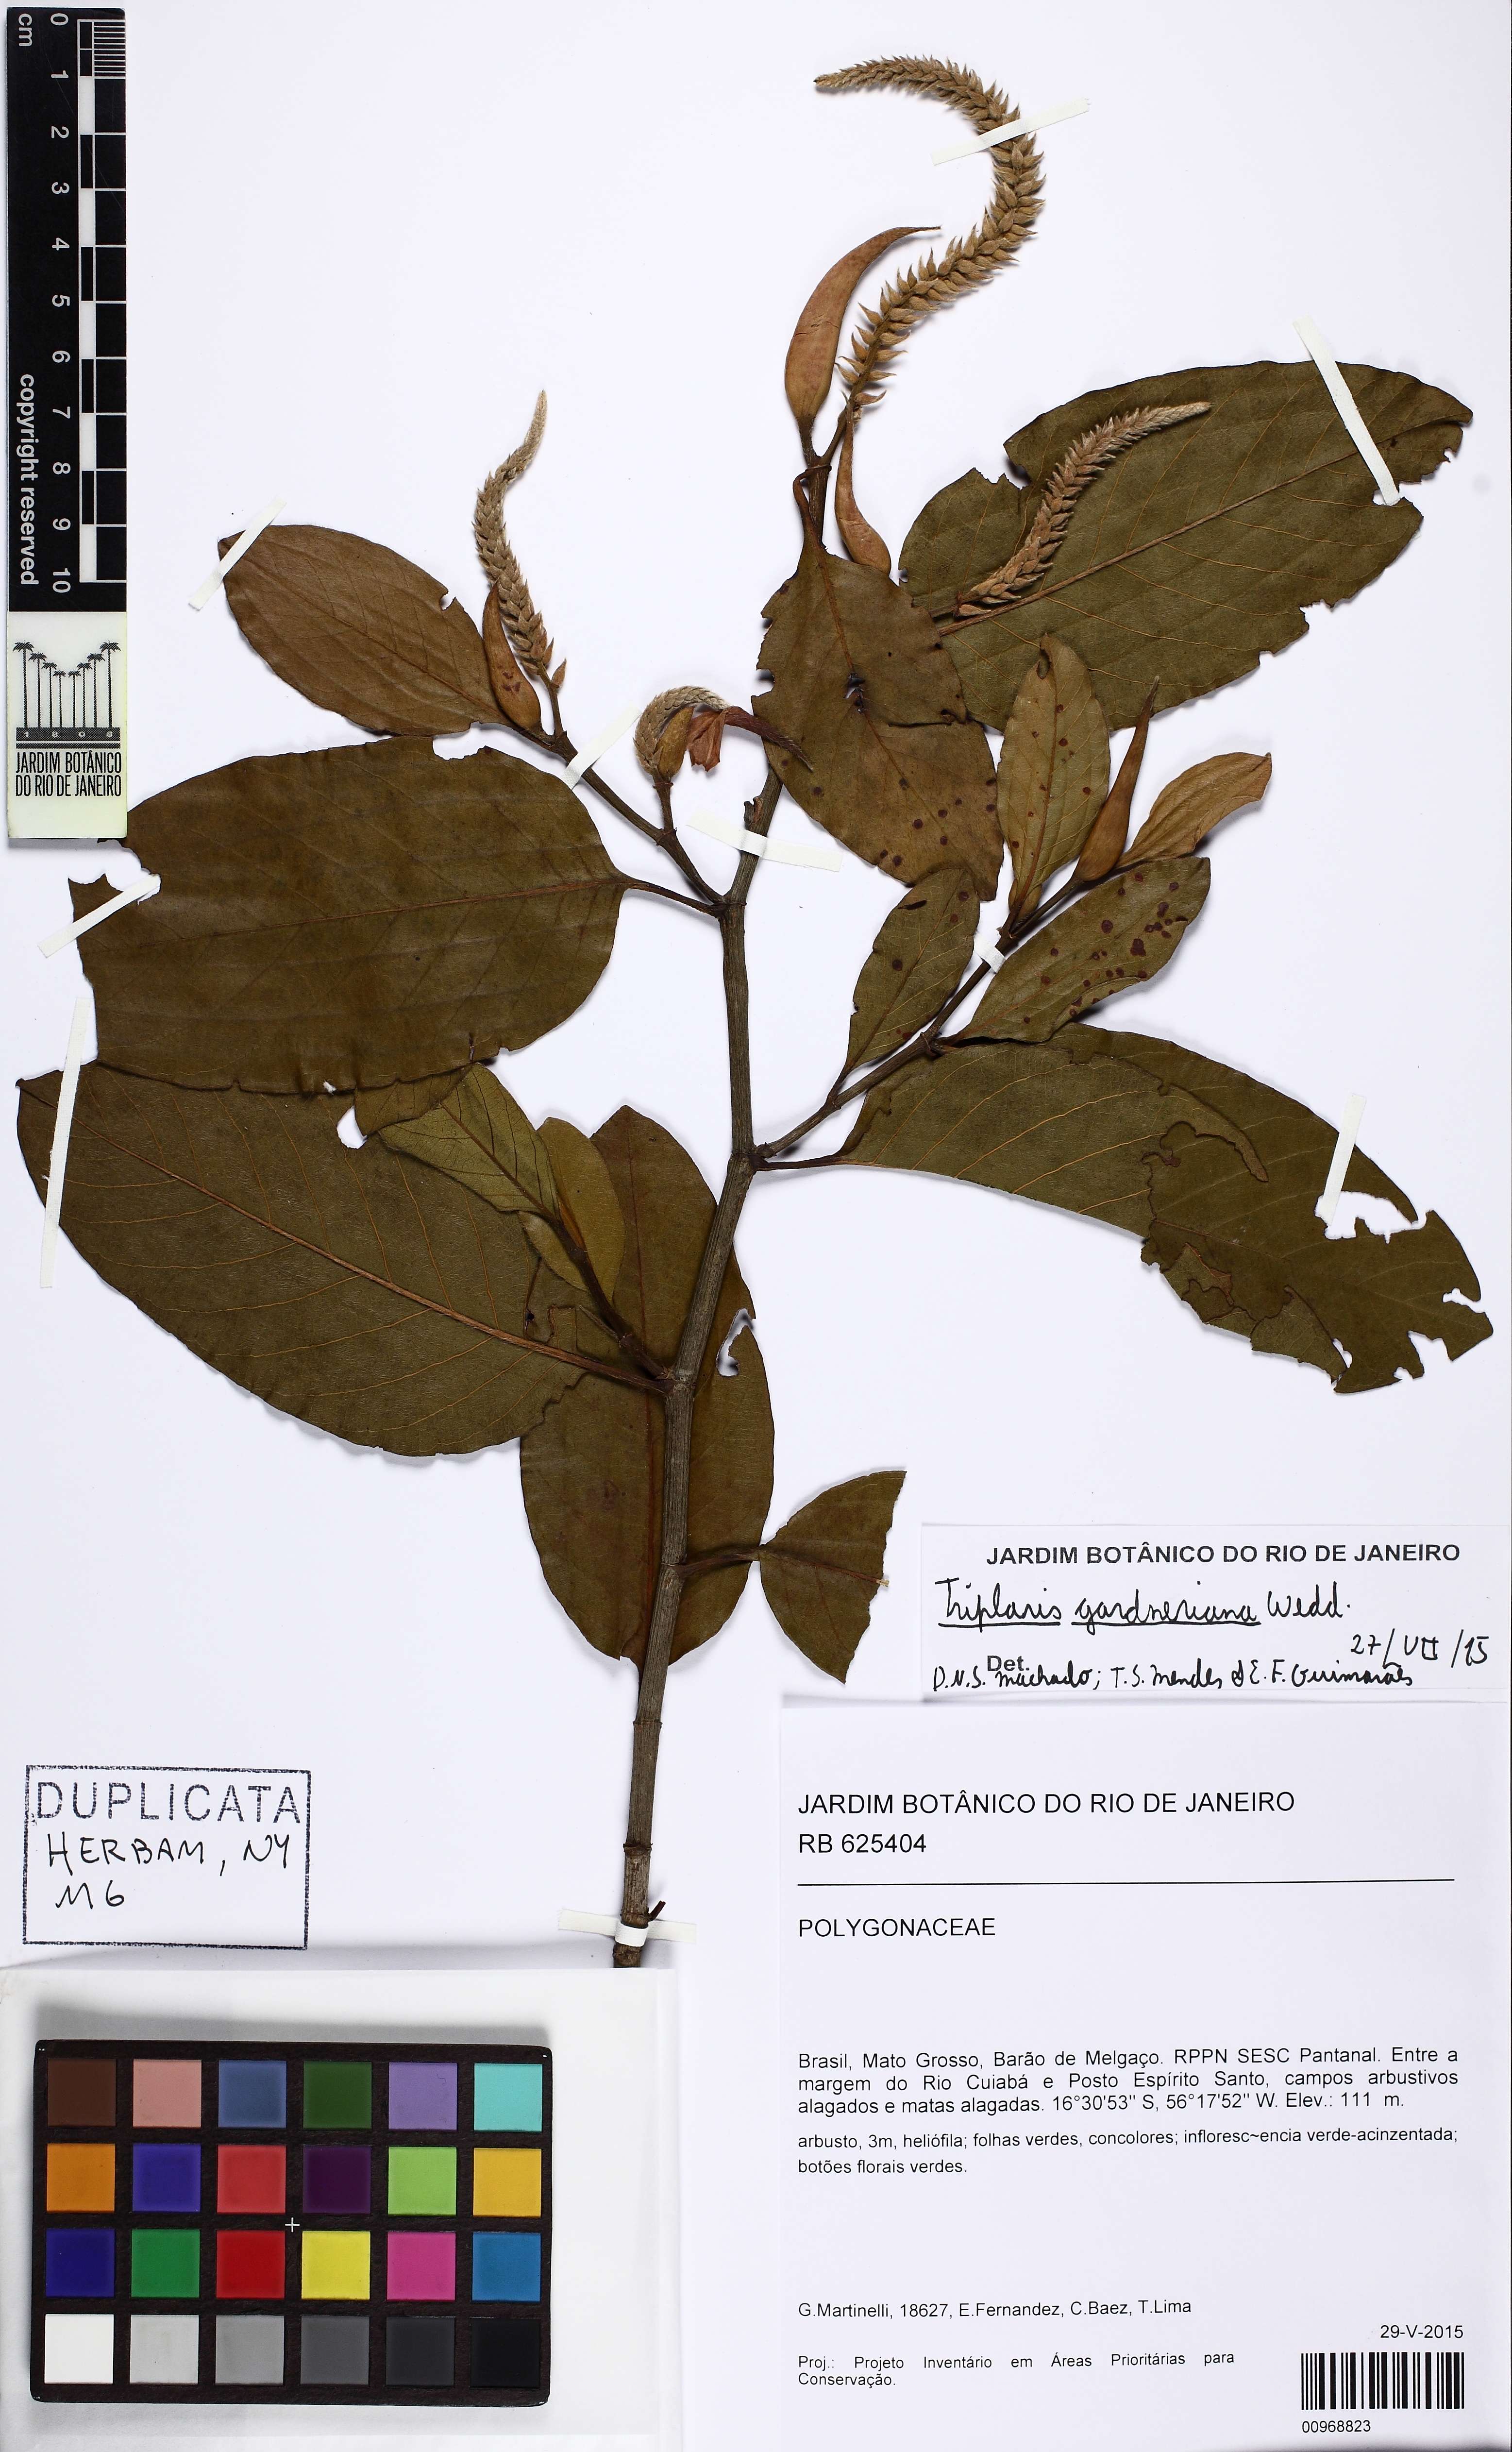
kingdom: Plantae
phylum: Tracheophyta
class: Magnoliopsida
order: Caryophyllales
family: Polygonaceae
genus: Triplaris
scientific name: Triplaris gardneriana
